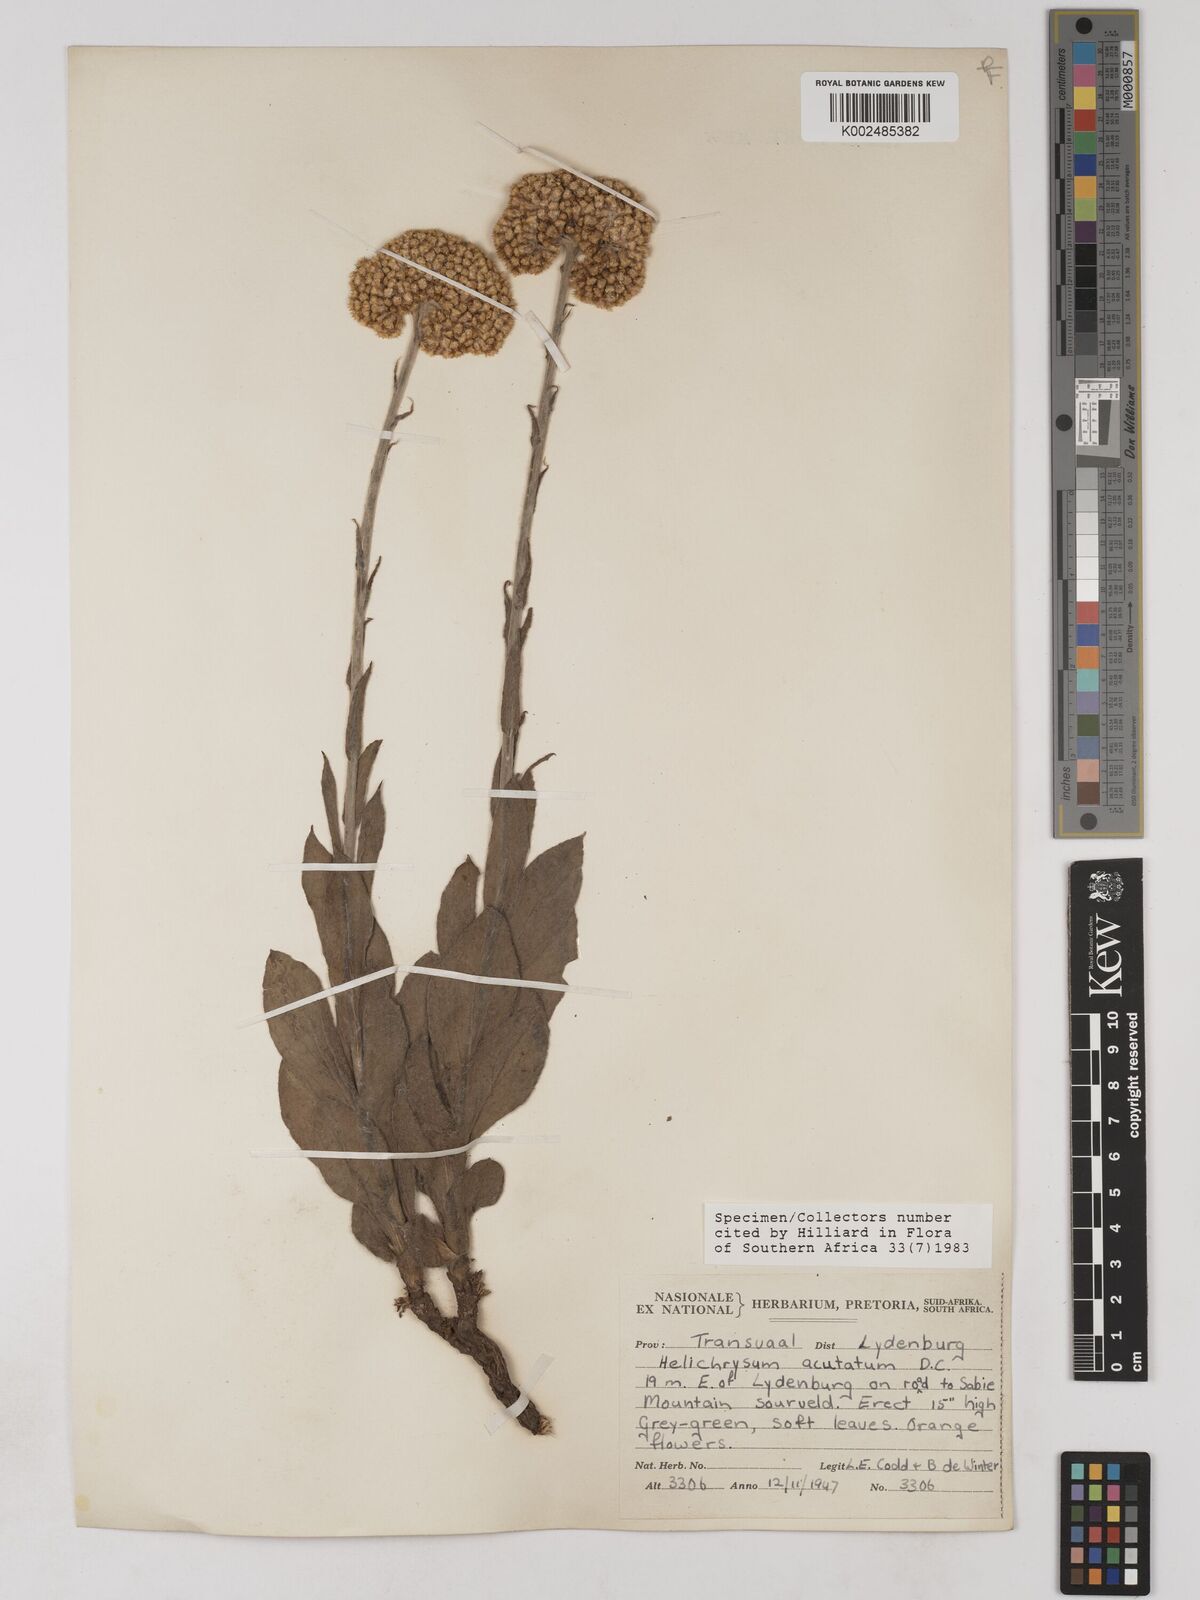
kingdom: Plantae
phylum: Tracheophyta
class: Magnoliopsida
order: Asterales
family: Asteraceae
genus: Helichrysum
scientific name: Helichrysum acutatum
